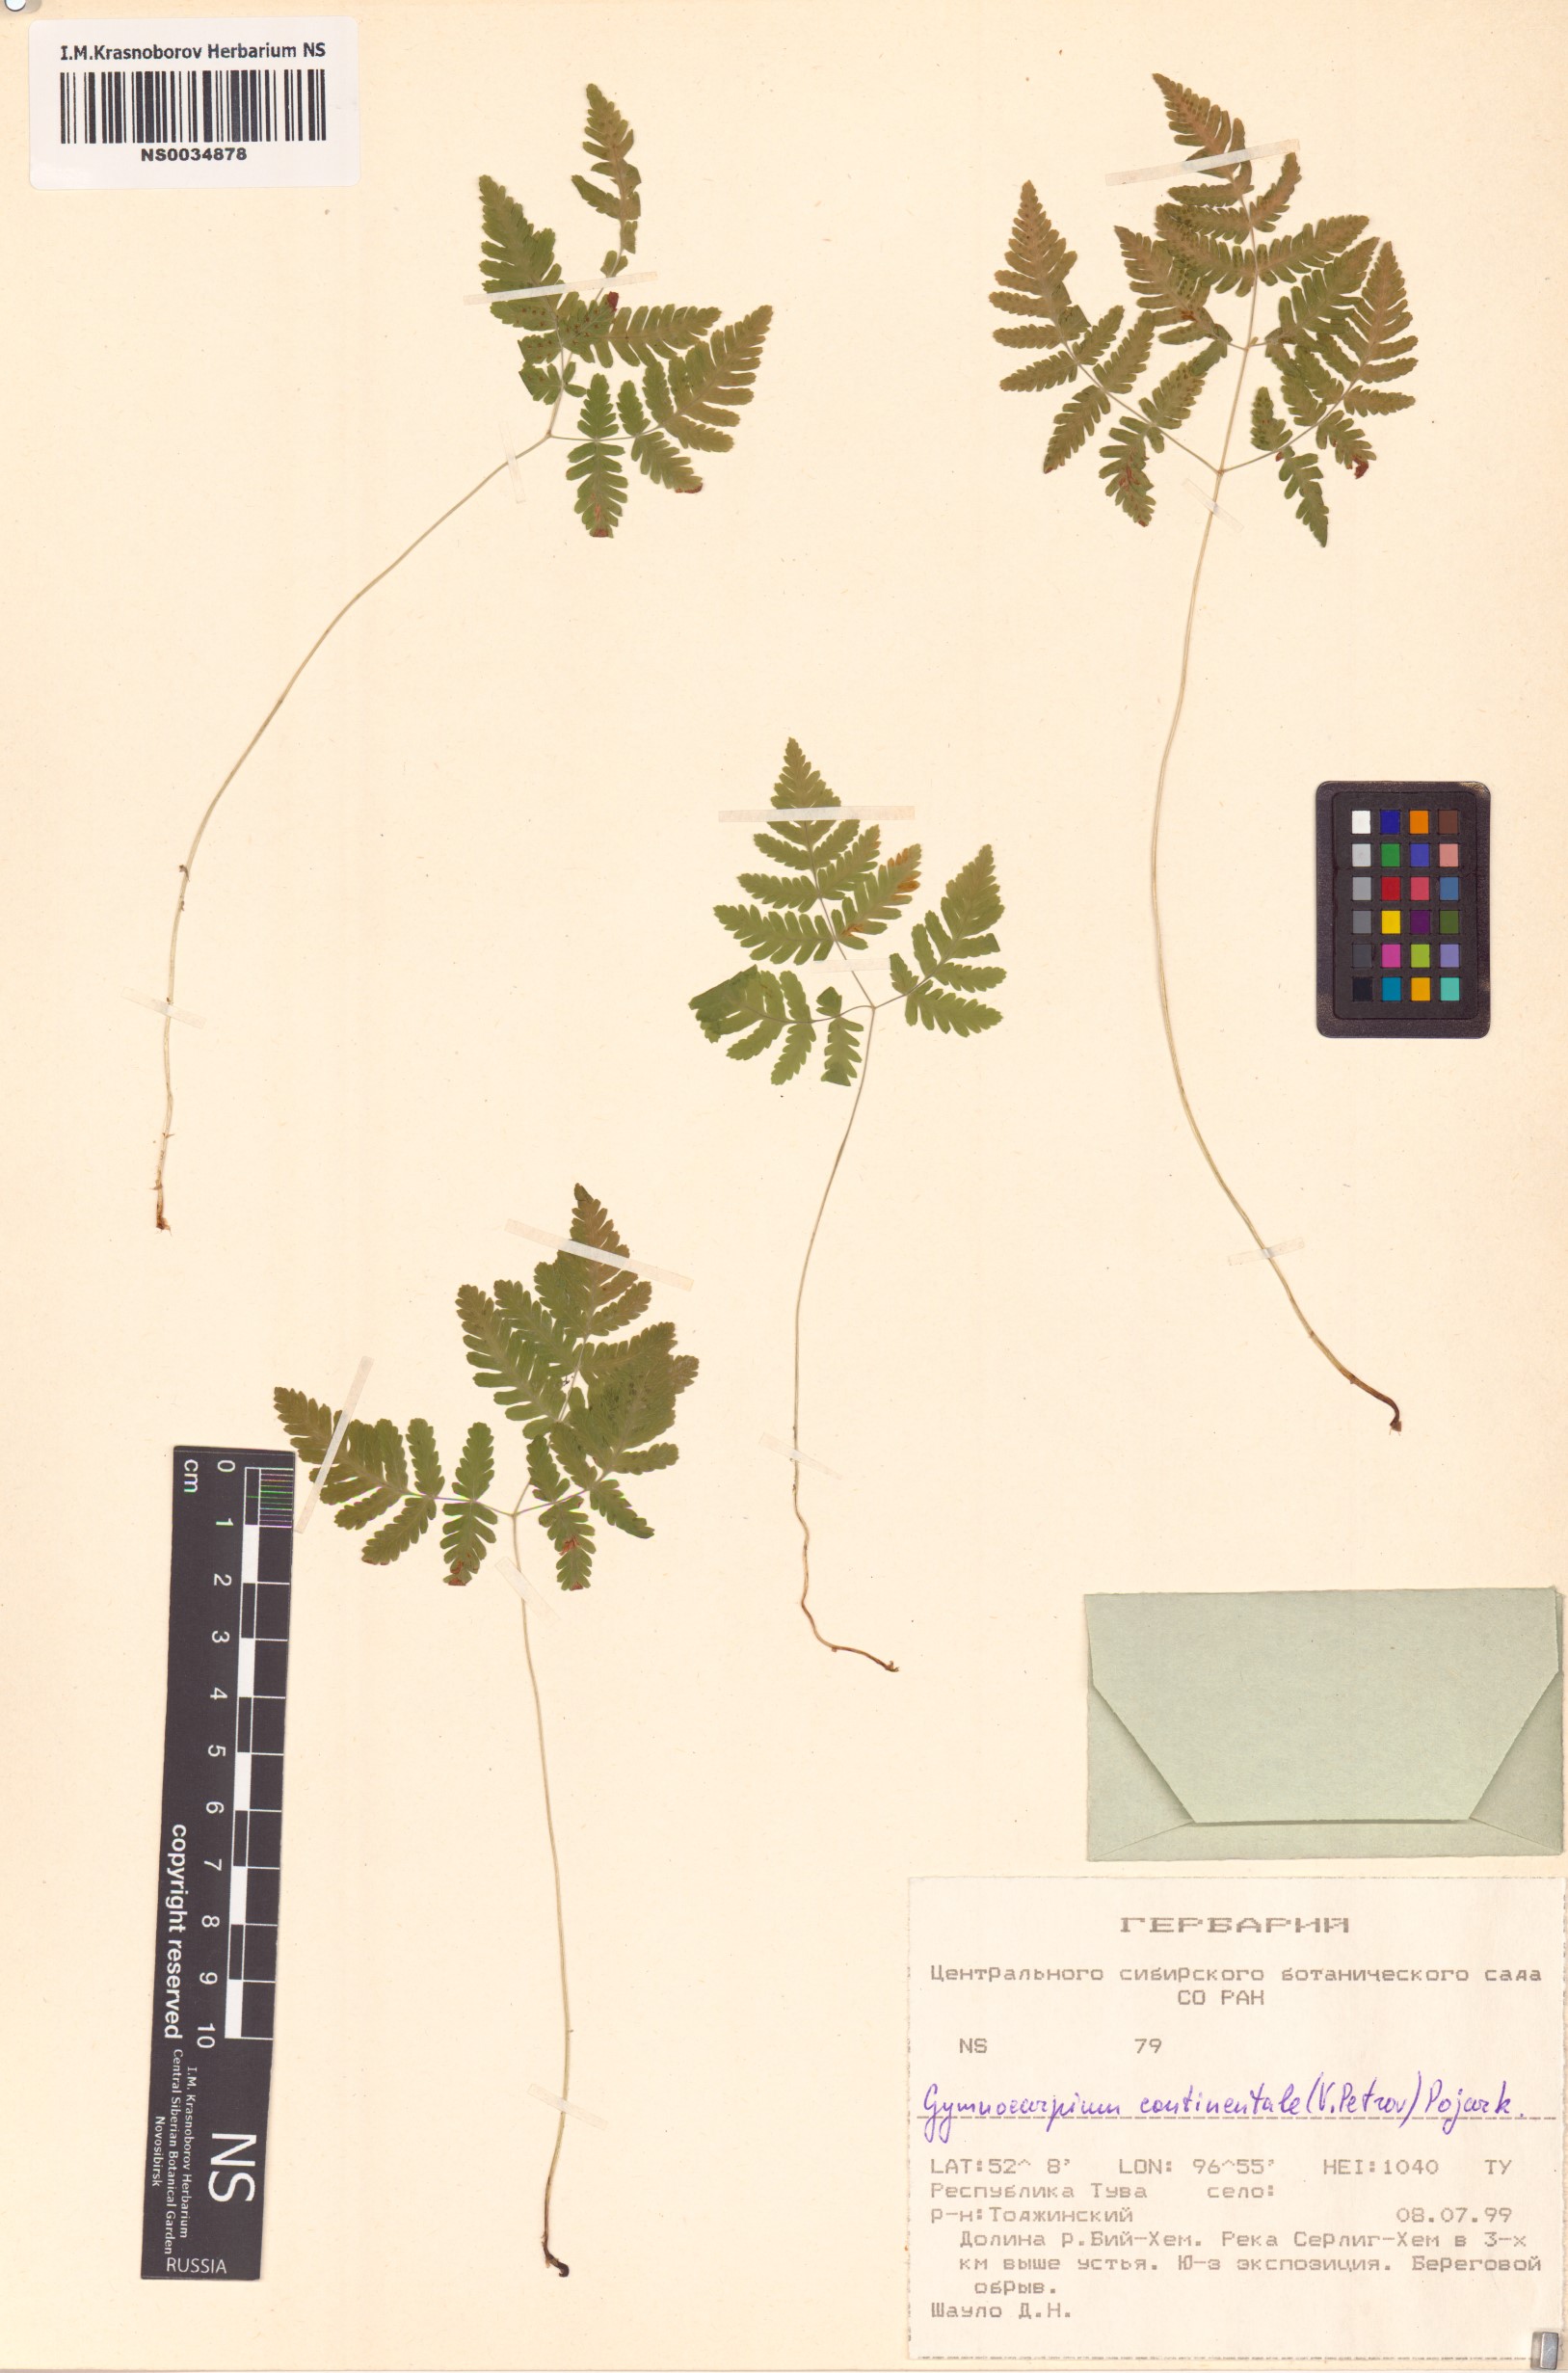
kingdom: Plantae
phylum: Tracheophyta
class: Polypodiopsida
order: Polypodiales
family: Cystopteridaceae
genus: Gymnocarpium
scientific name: Gymnocarpium continentale
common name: Asian oak fern
